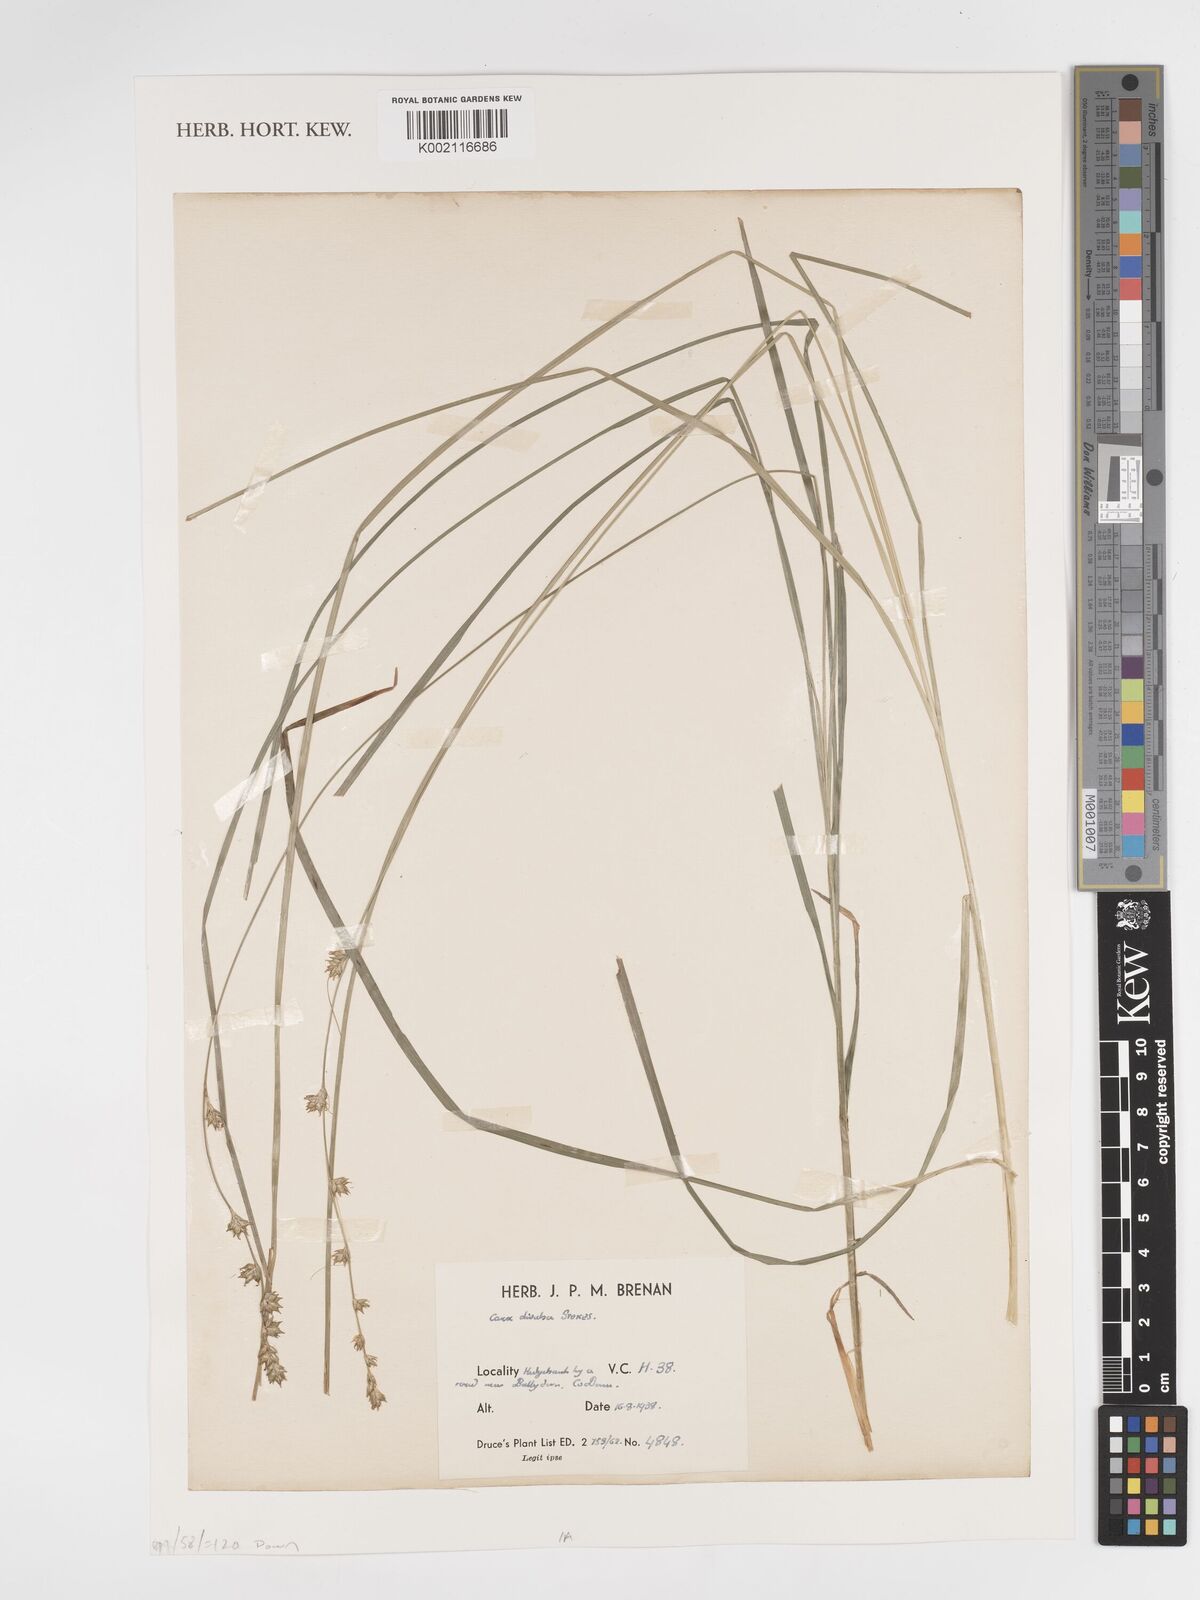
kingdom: Plantae
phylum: Tracheophyta
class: Liliopsida
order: Poales
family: Cyperaceae
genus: Carex
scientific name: Carex divulsa
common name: Grassland sedge
